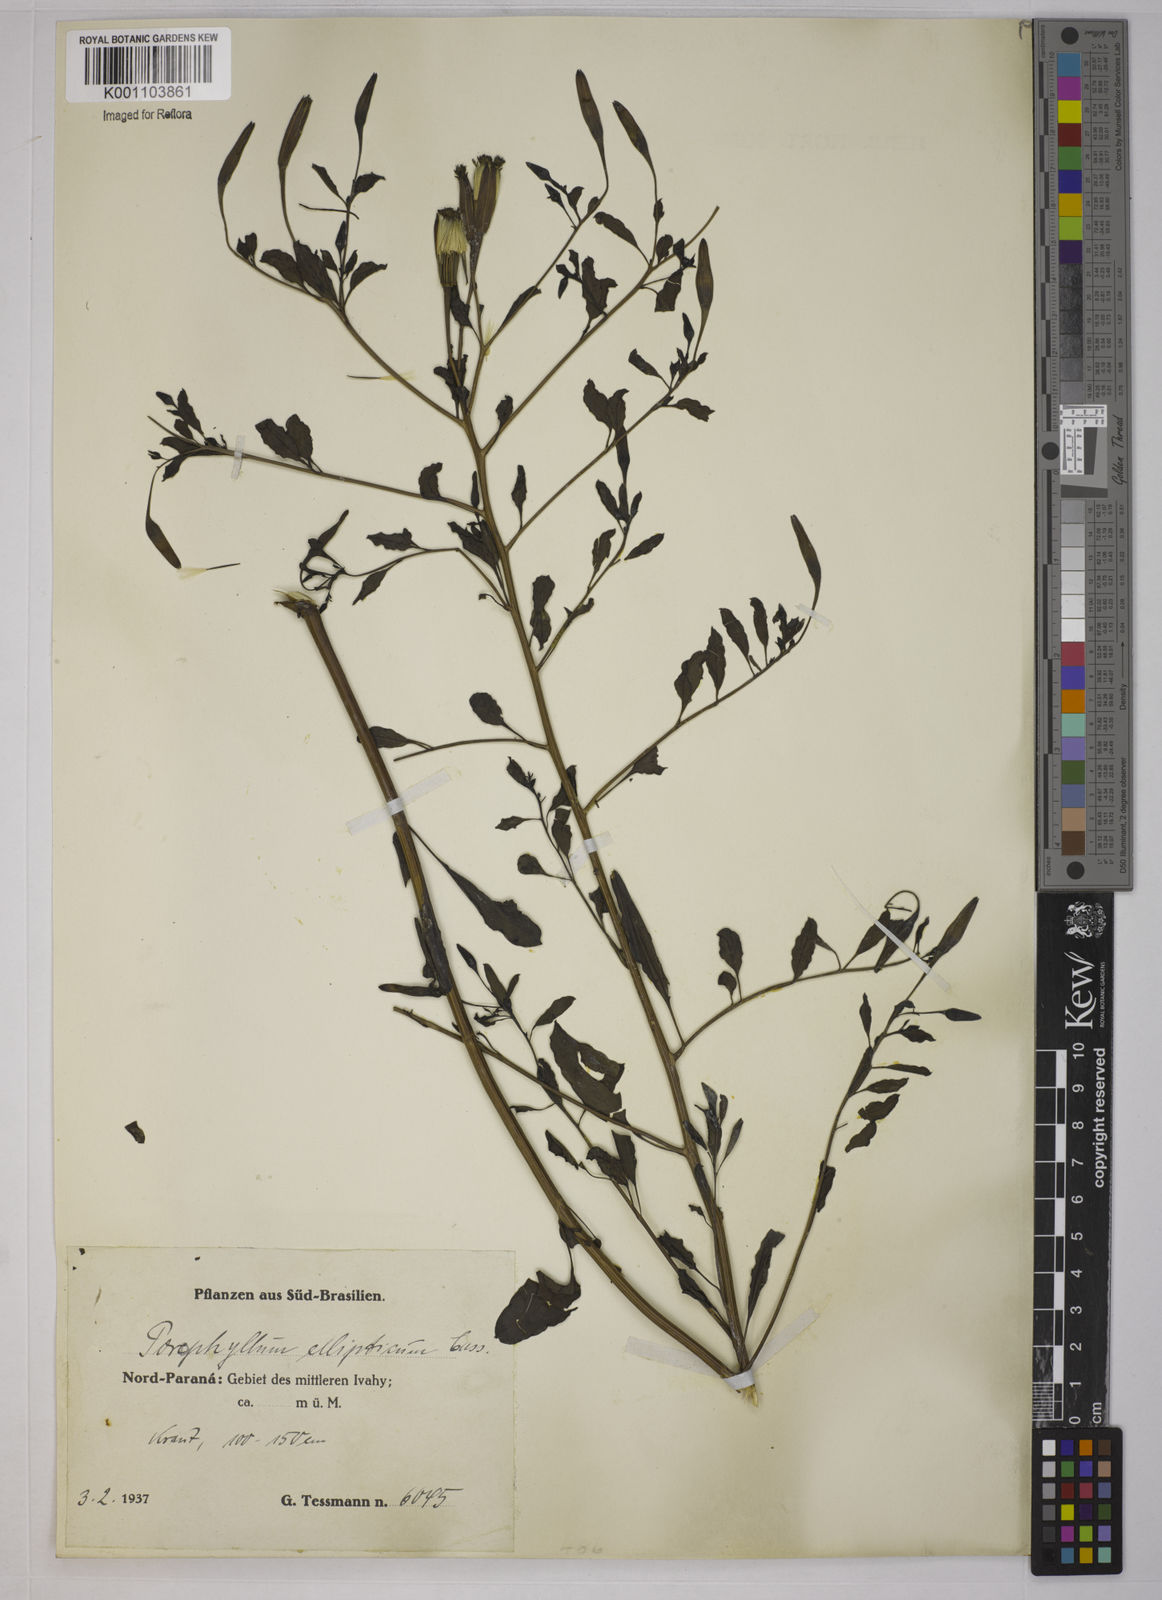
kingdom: Plantae
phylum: Tracheophyta
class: Magnoliopsida
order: Asterales
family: Asteraceae
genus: Porophyllum
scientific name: Porophyllum ruderale
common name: Yerba porosa
